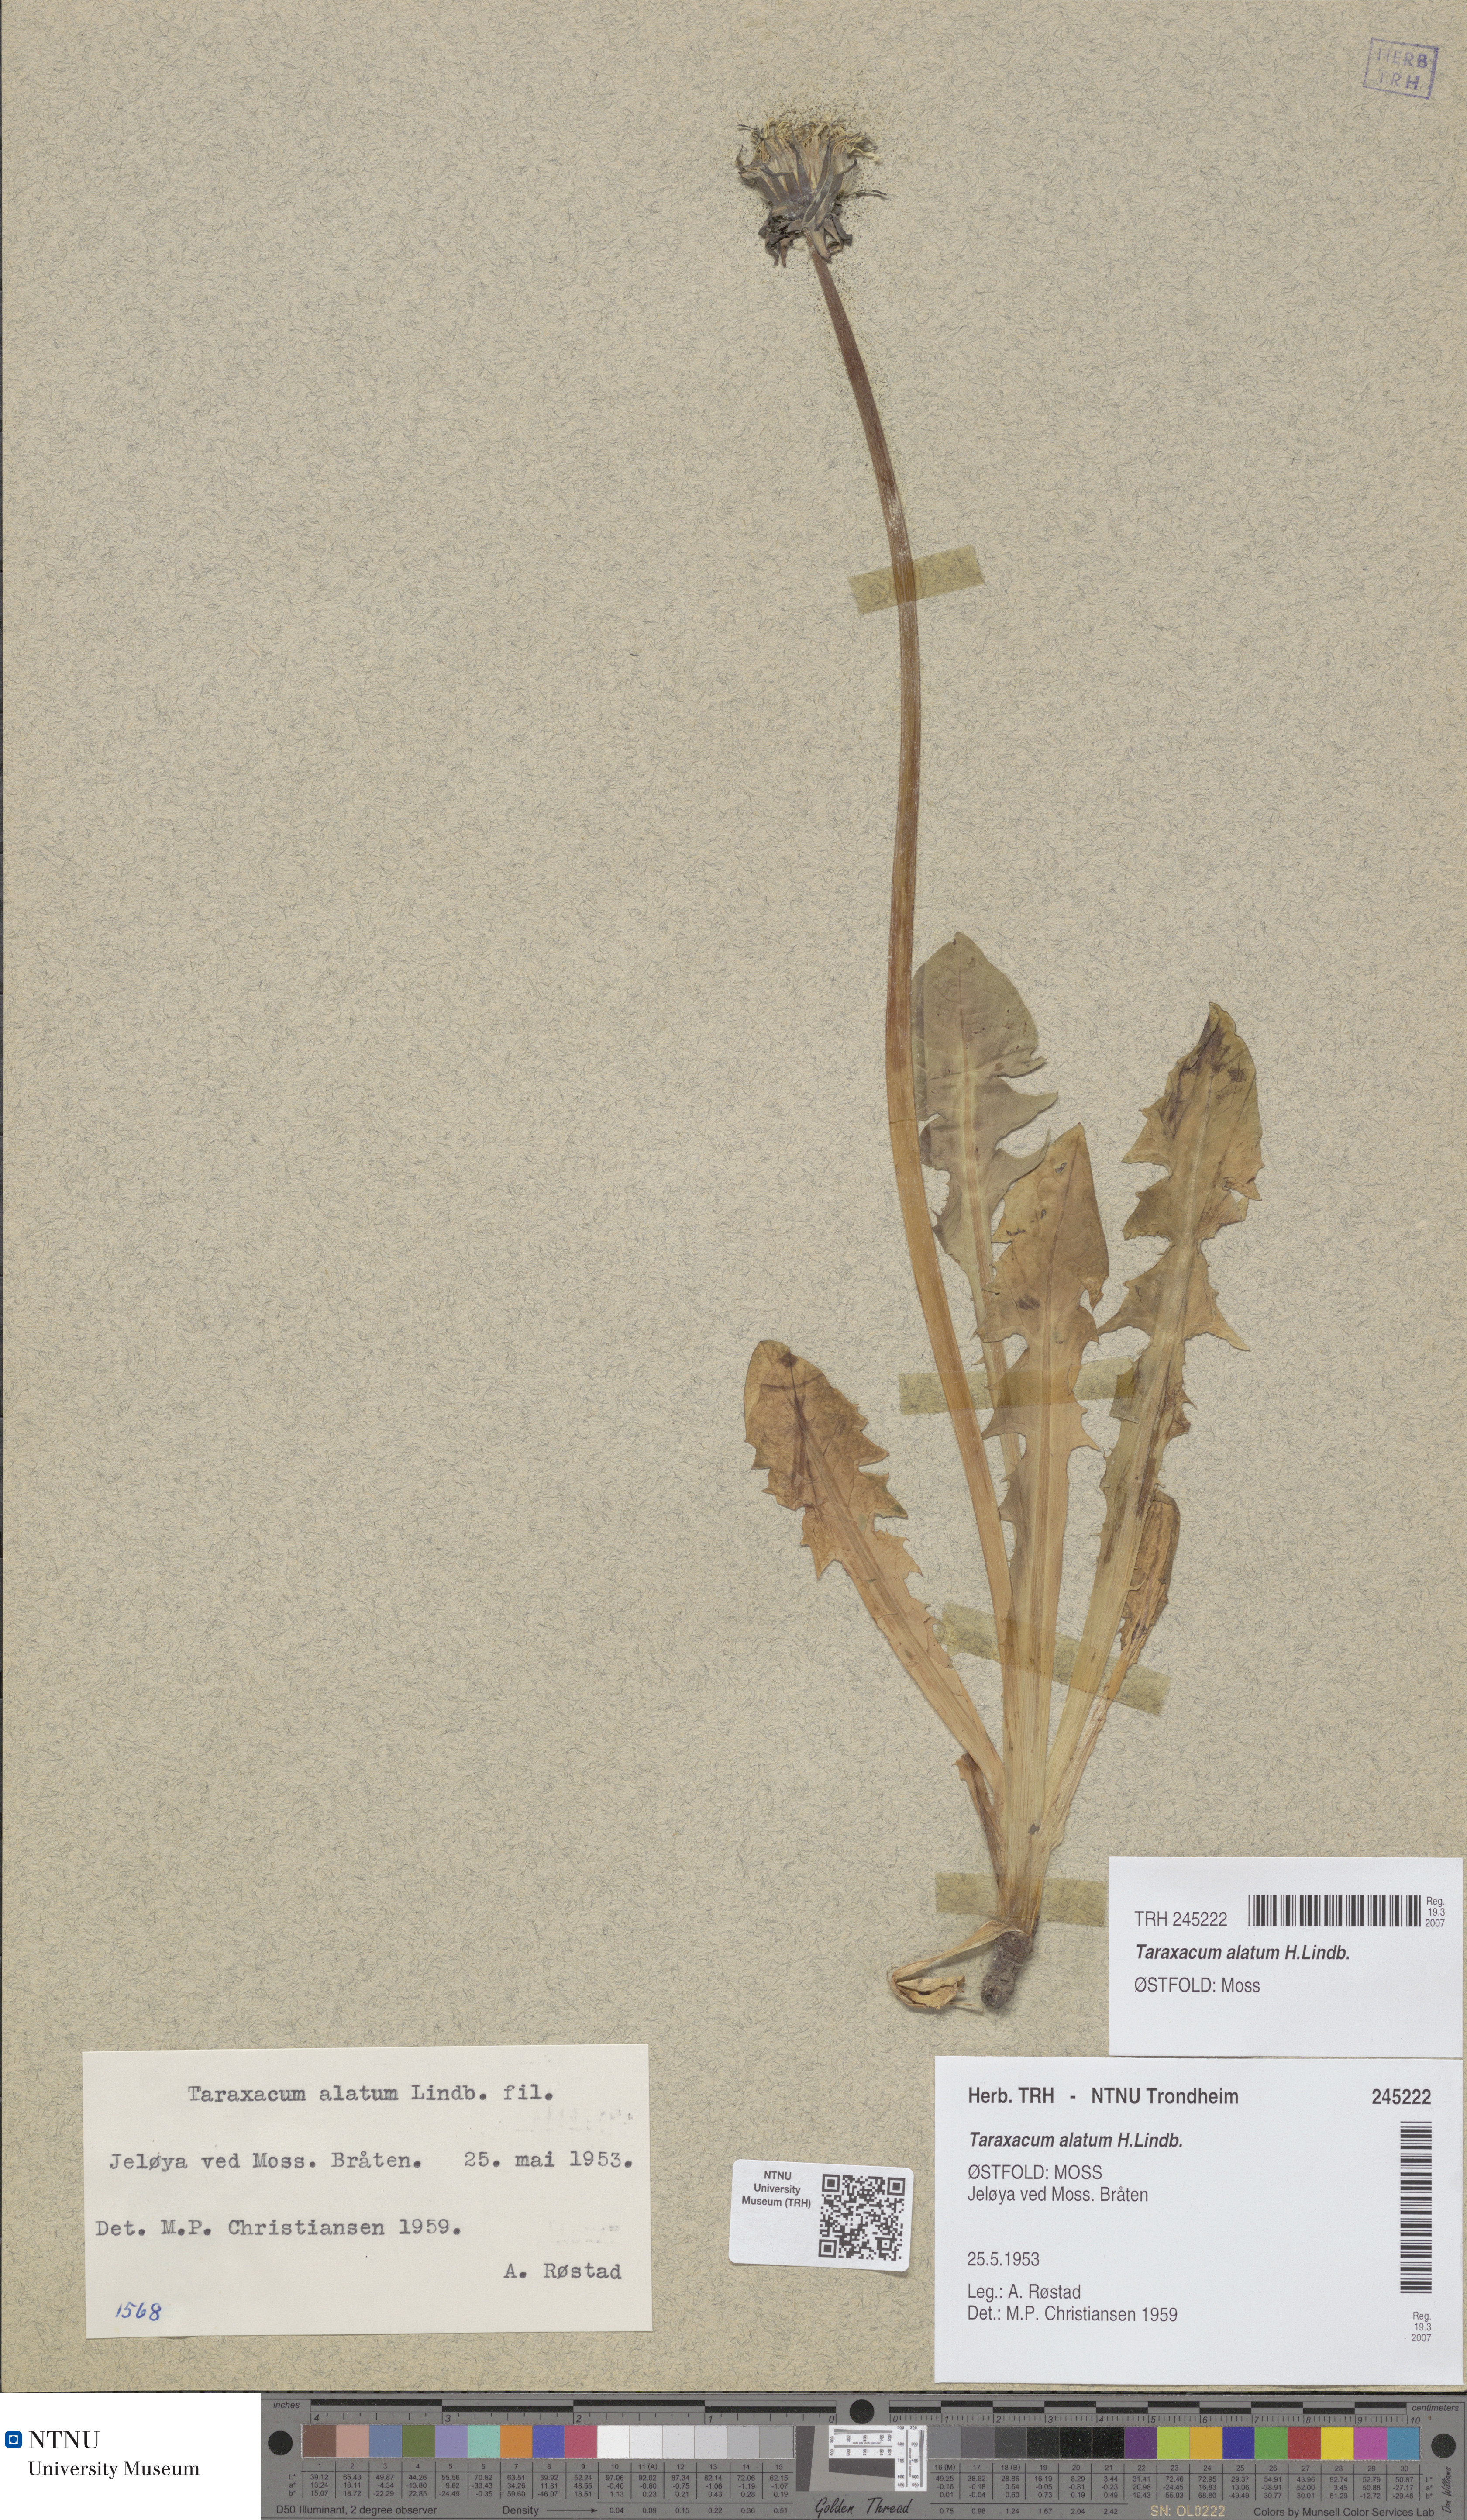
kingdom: Plantae
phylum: Tracheophyta
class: Magnoliopsida
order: Asterales
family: Asteraceae
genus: Taraxacum
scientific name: Taraxacum alatum
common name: Green dandelion
